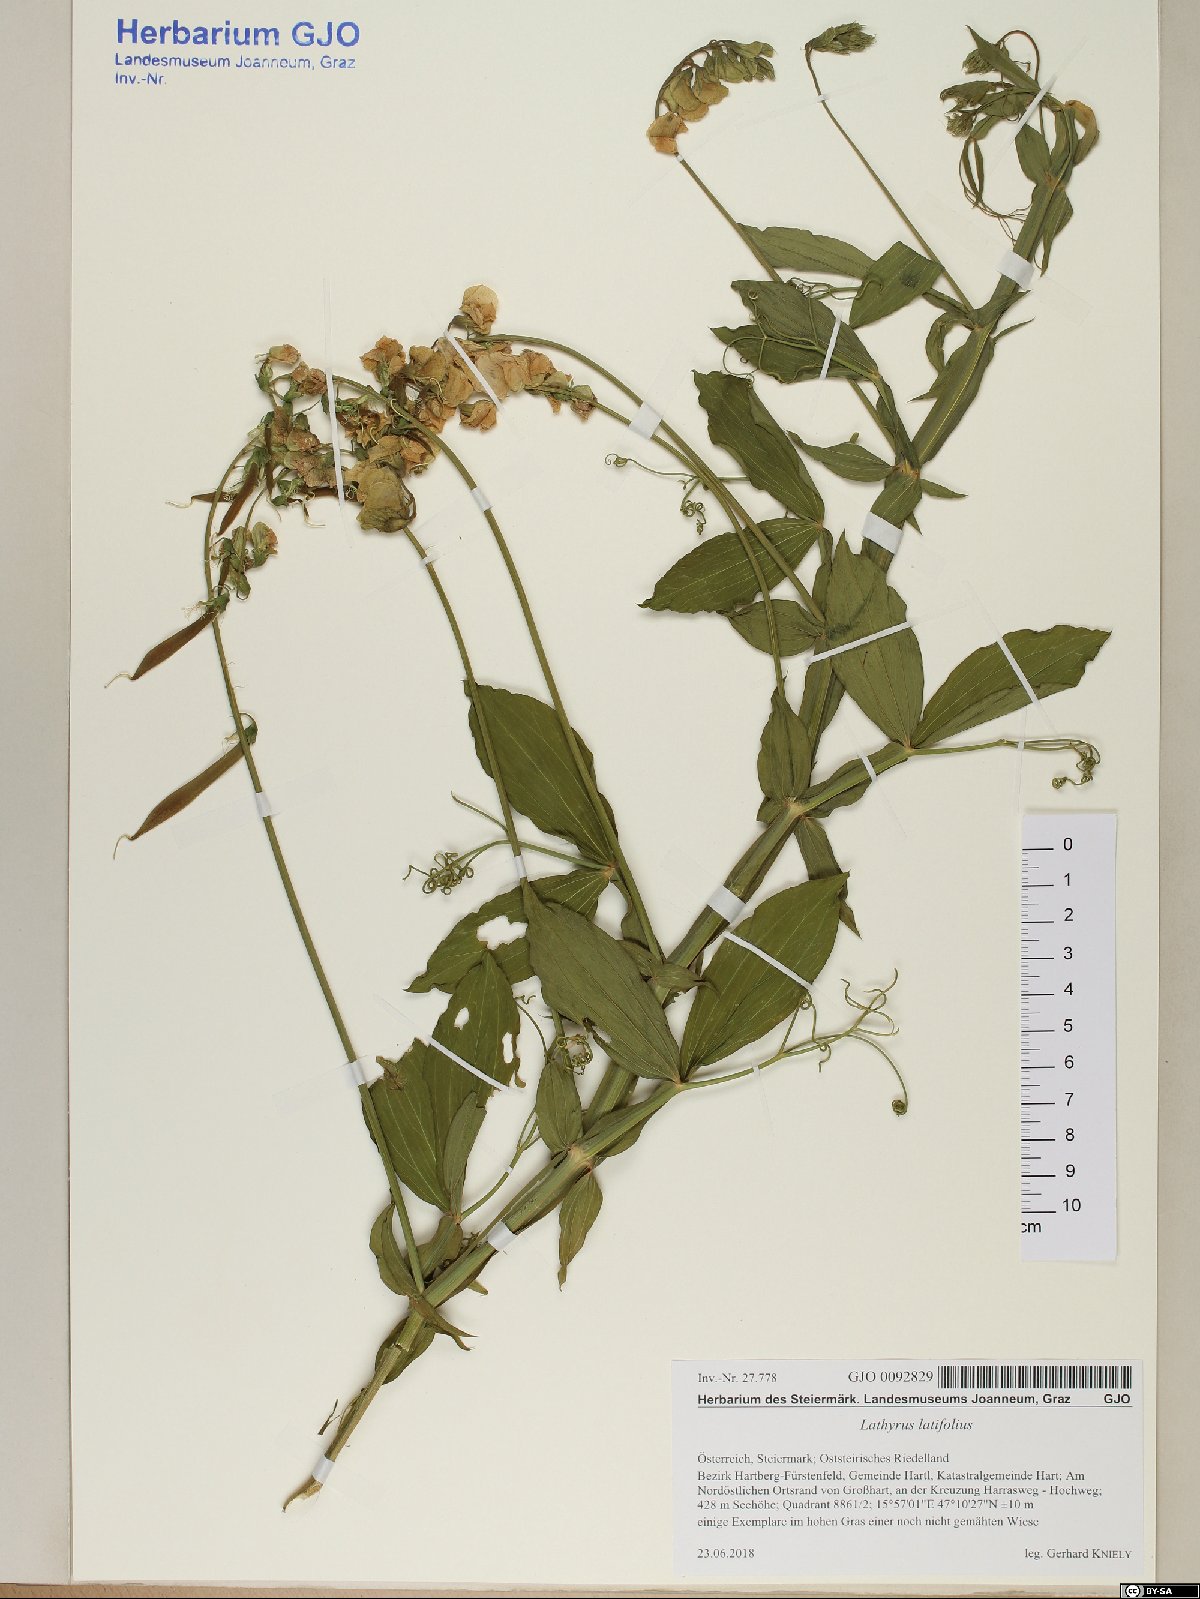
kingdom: Plantae
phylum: Tracheophyta
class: Magnoliopsida
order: Fabales
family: Fabaceae
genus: Lathyrus
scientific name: Lathyrus latifolius
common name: Perennial pea
